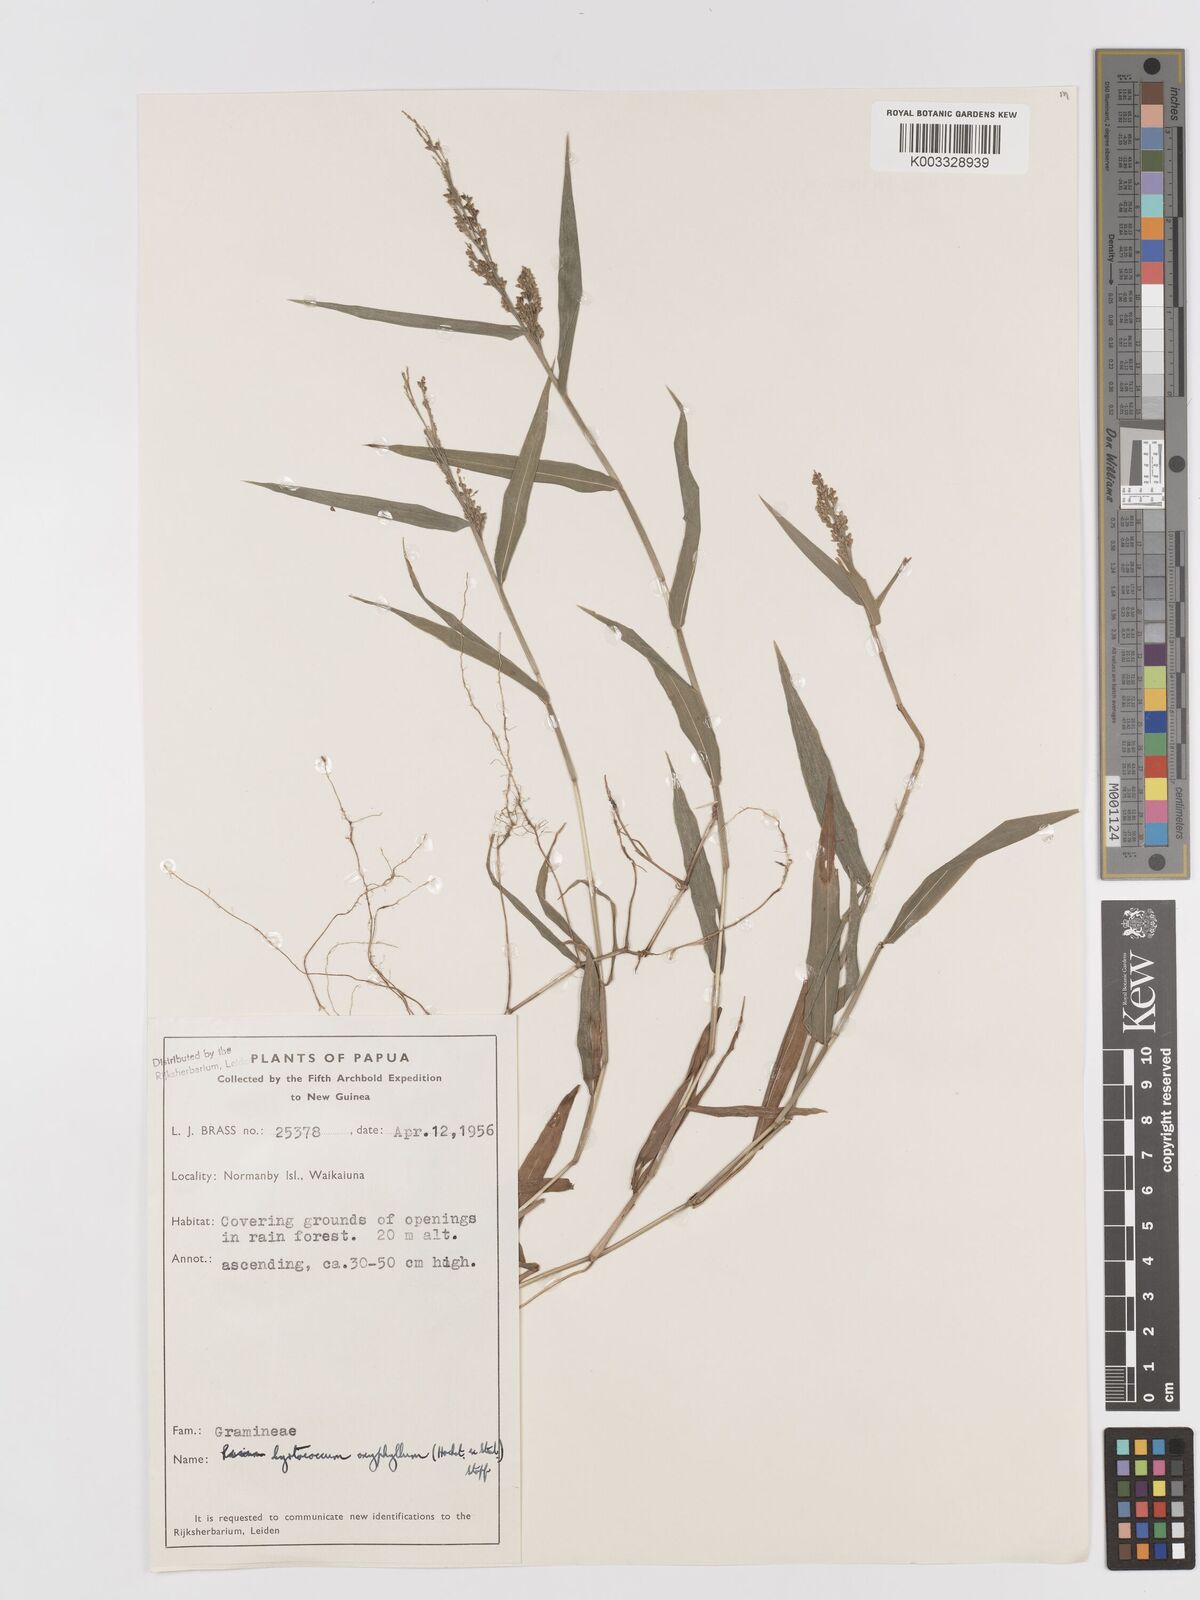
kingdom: Plantae
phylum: Tracheophyta
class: Liliopsida
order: Poales
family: Poaceae
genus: Cyrtococcum
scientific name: Cyrtococcum oxyphyllum
